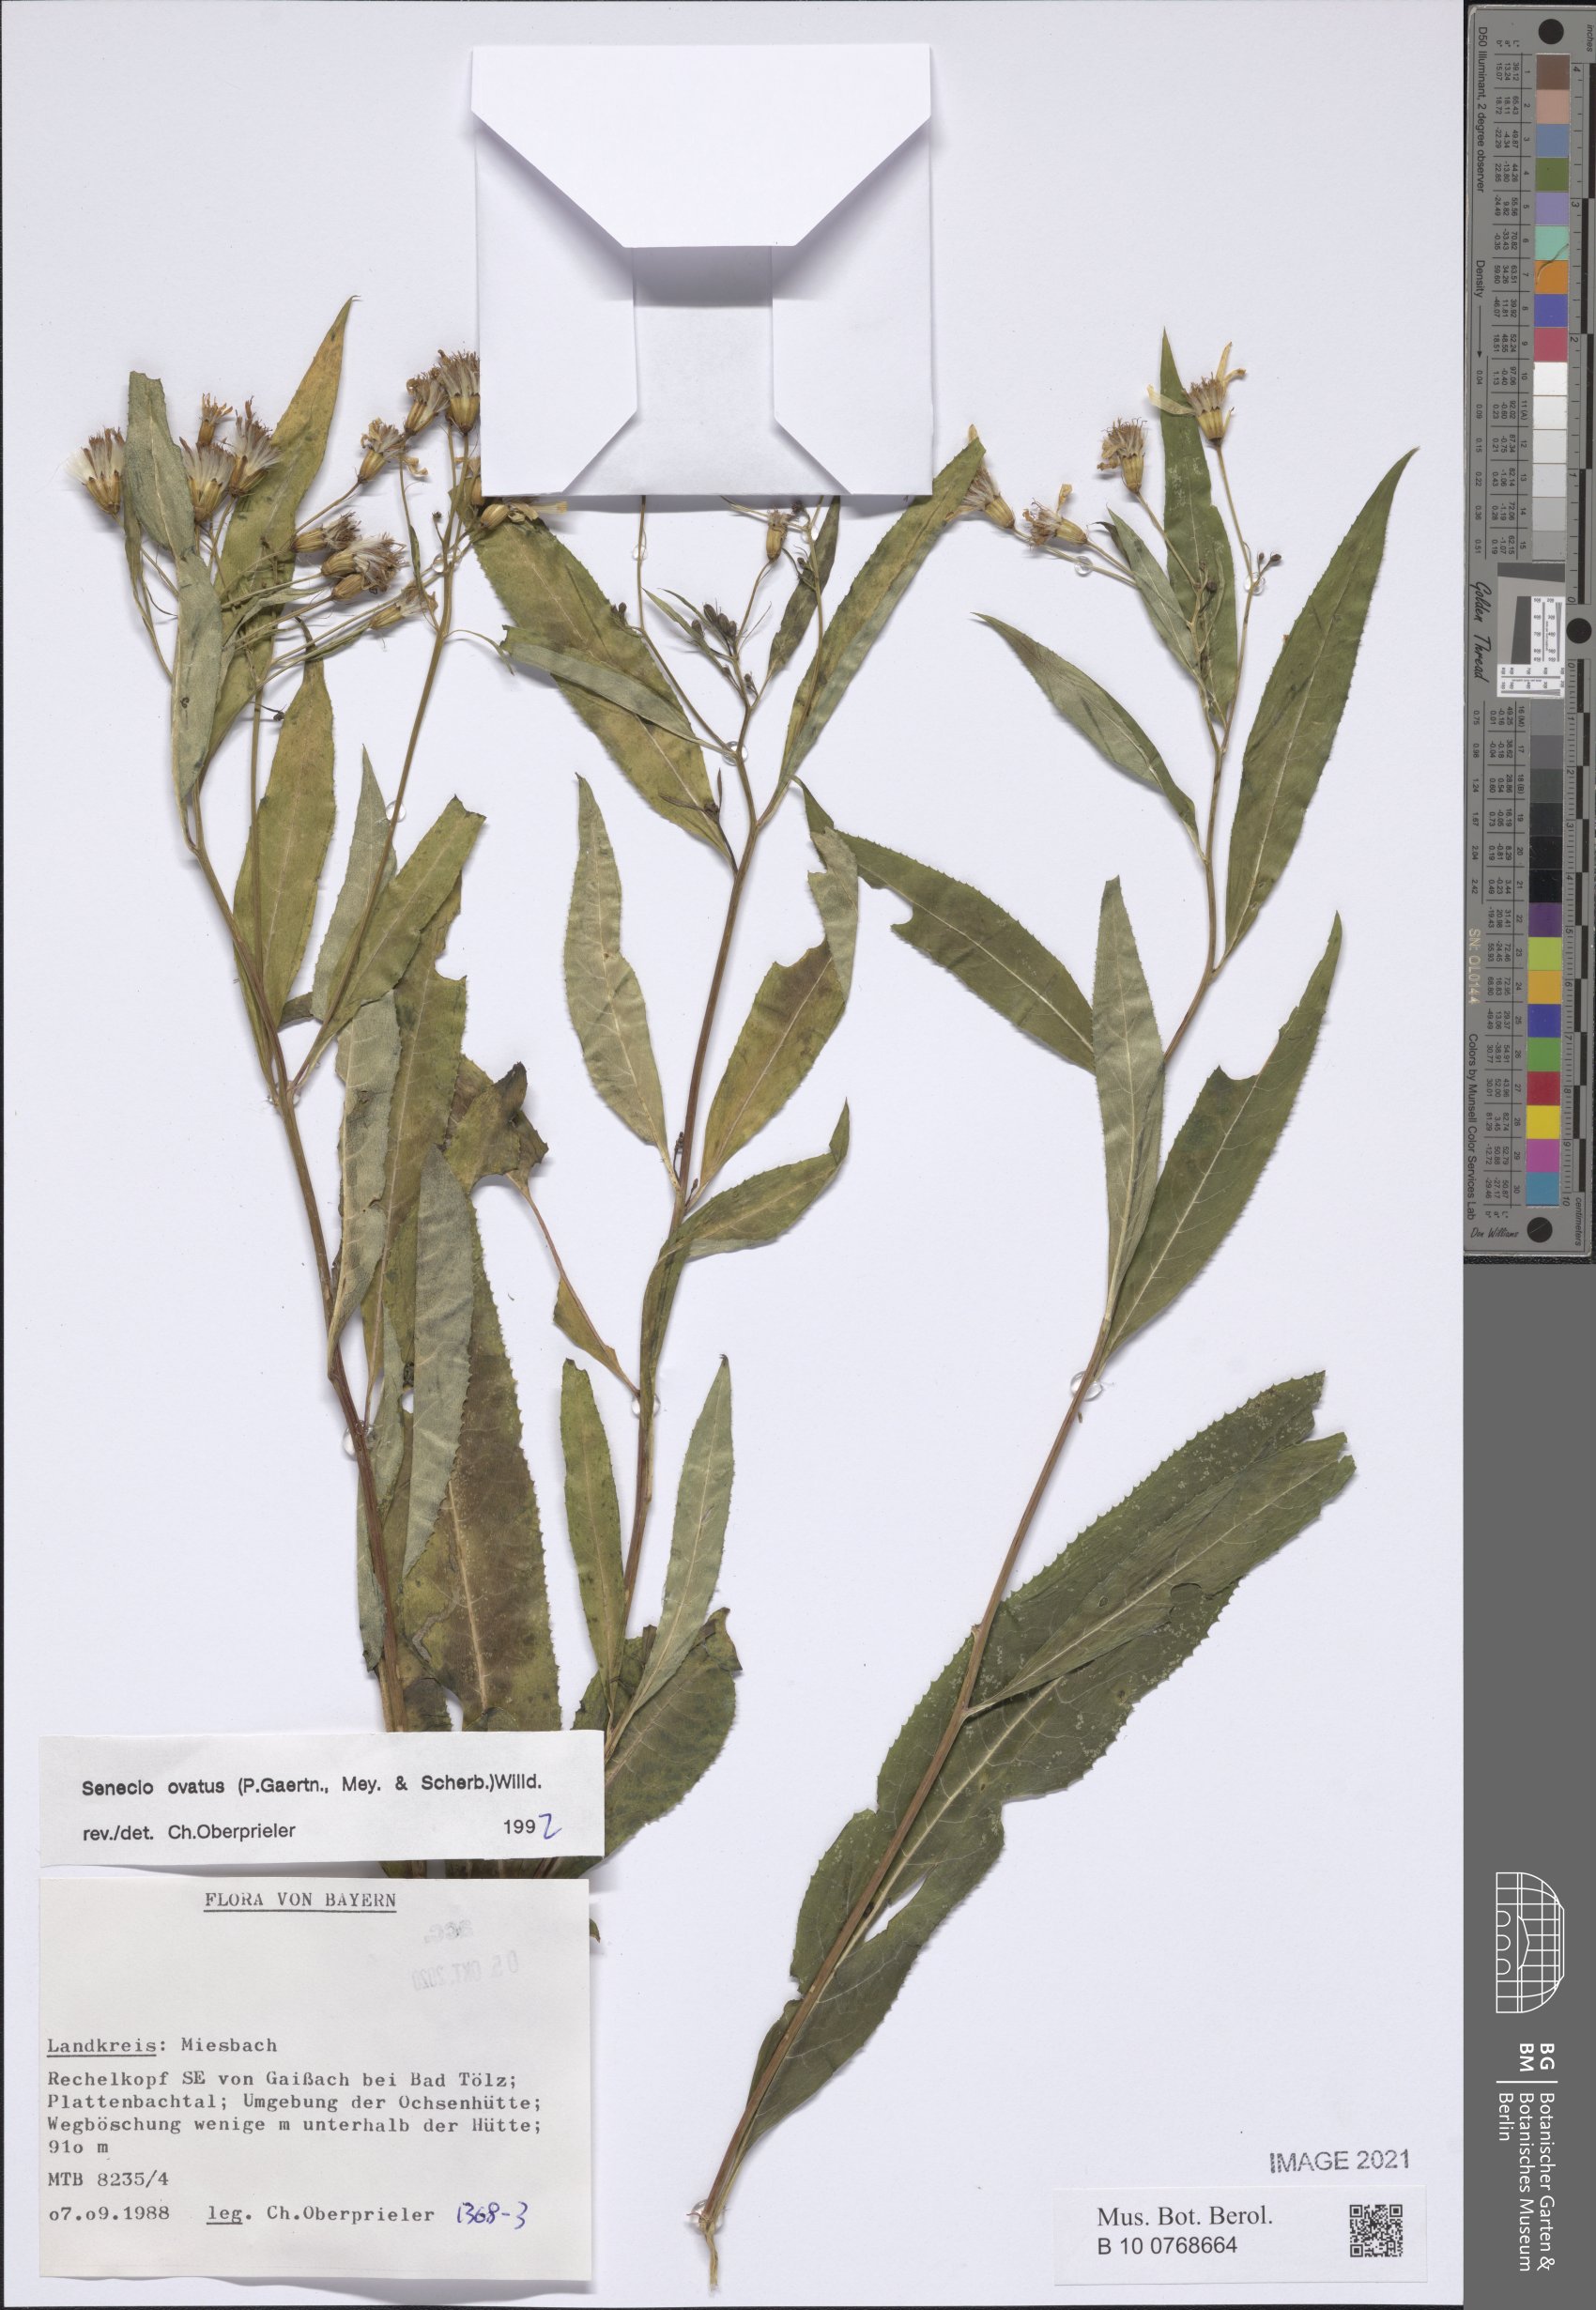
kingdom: Plantae
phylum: Tracheophyta
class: Magnoliopsida
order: Asterales
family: Asteraceae
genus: Senecio
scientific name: Senecio ovatus
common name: Wood ragwort
